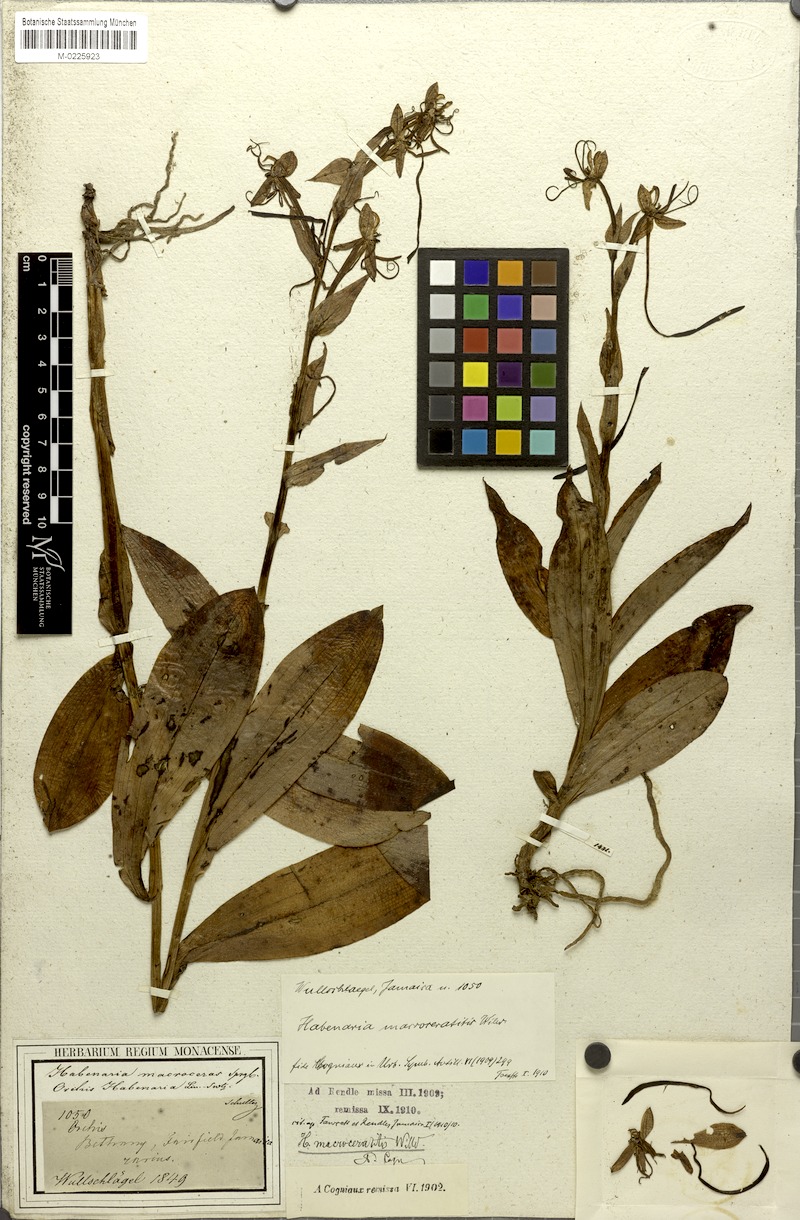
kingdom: Plantae
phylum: Tracheophyta
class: Liliopsida
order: Asparagales
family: Orchidaceae
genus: Habenaria
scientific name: Habenaria macroceratitis
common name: Big-horn bog orchid
